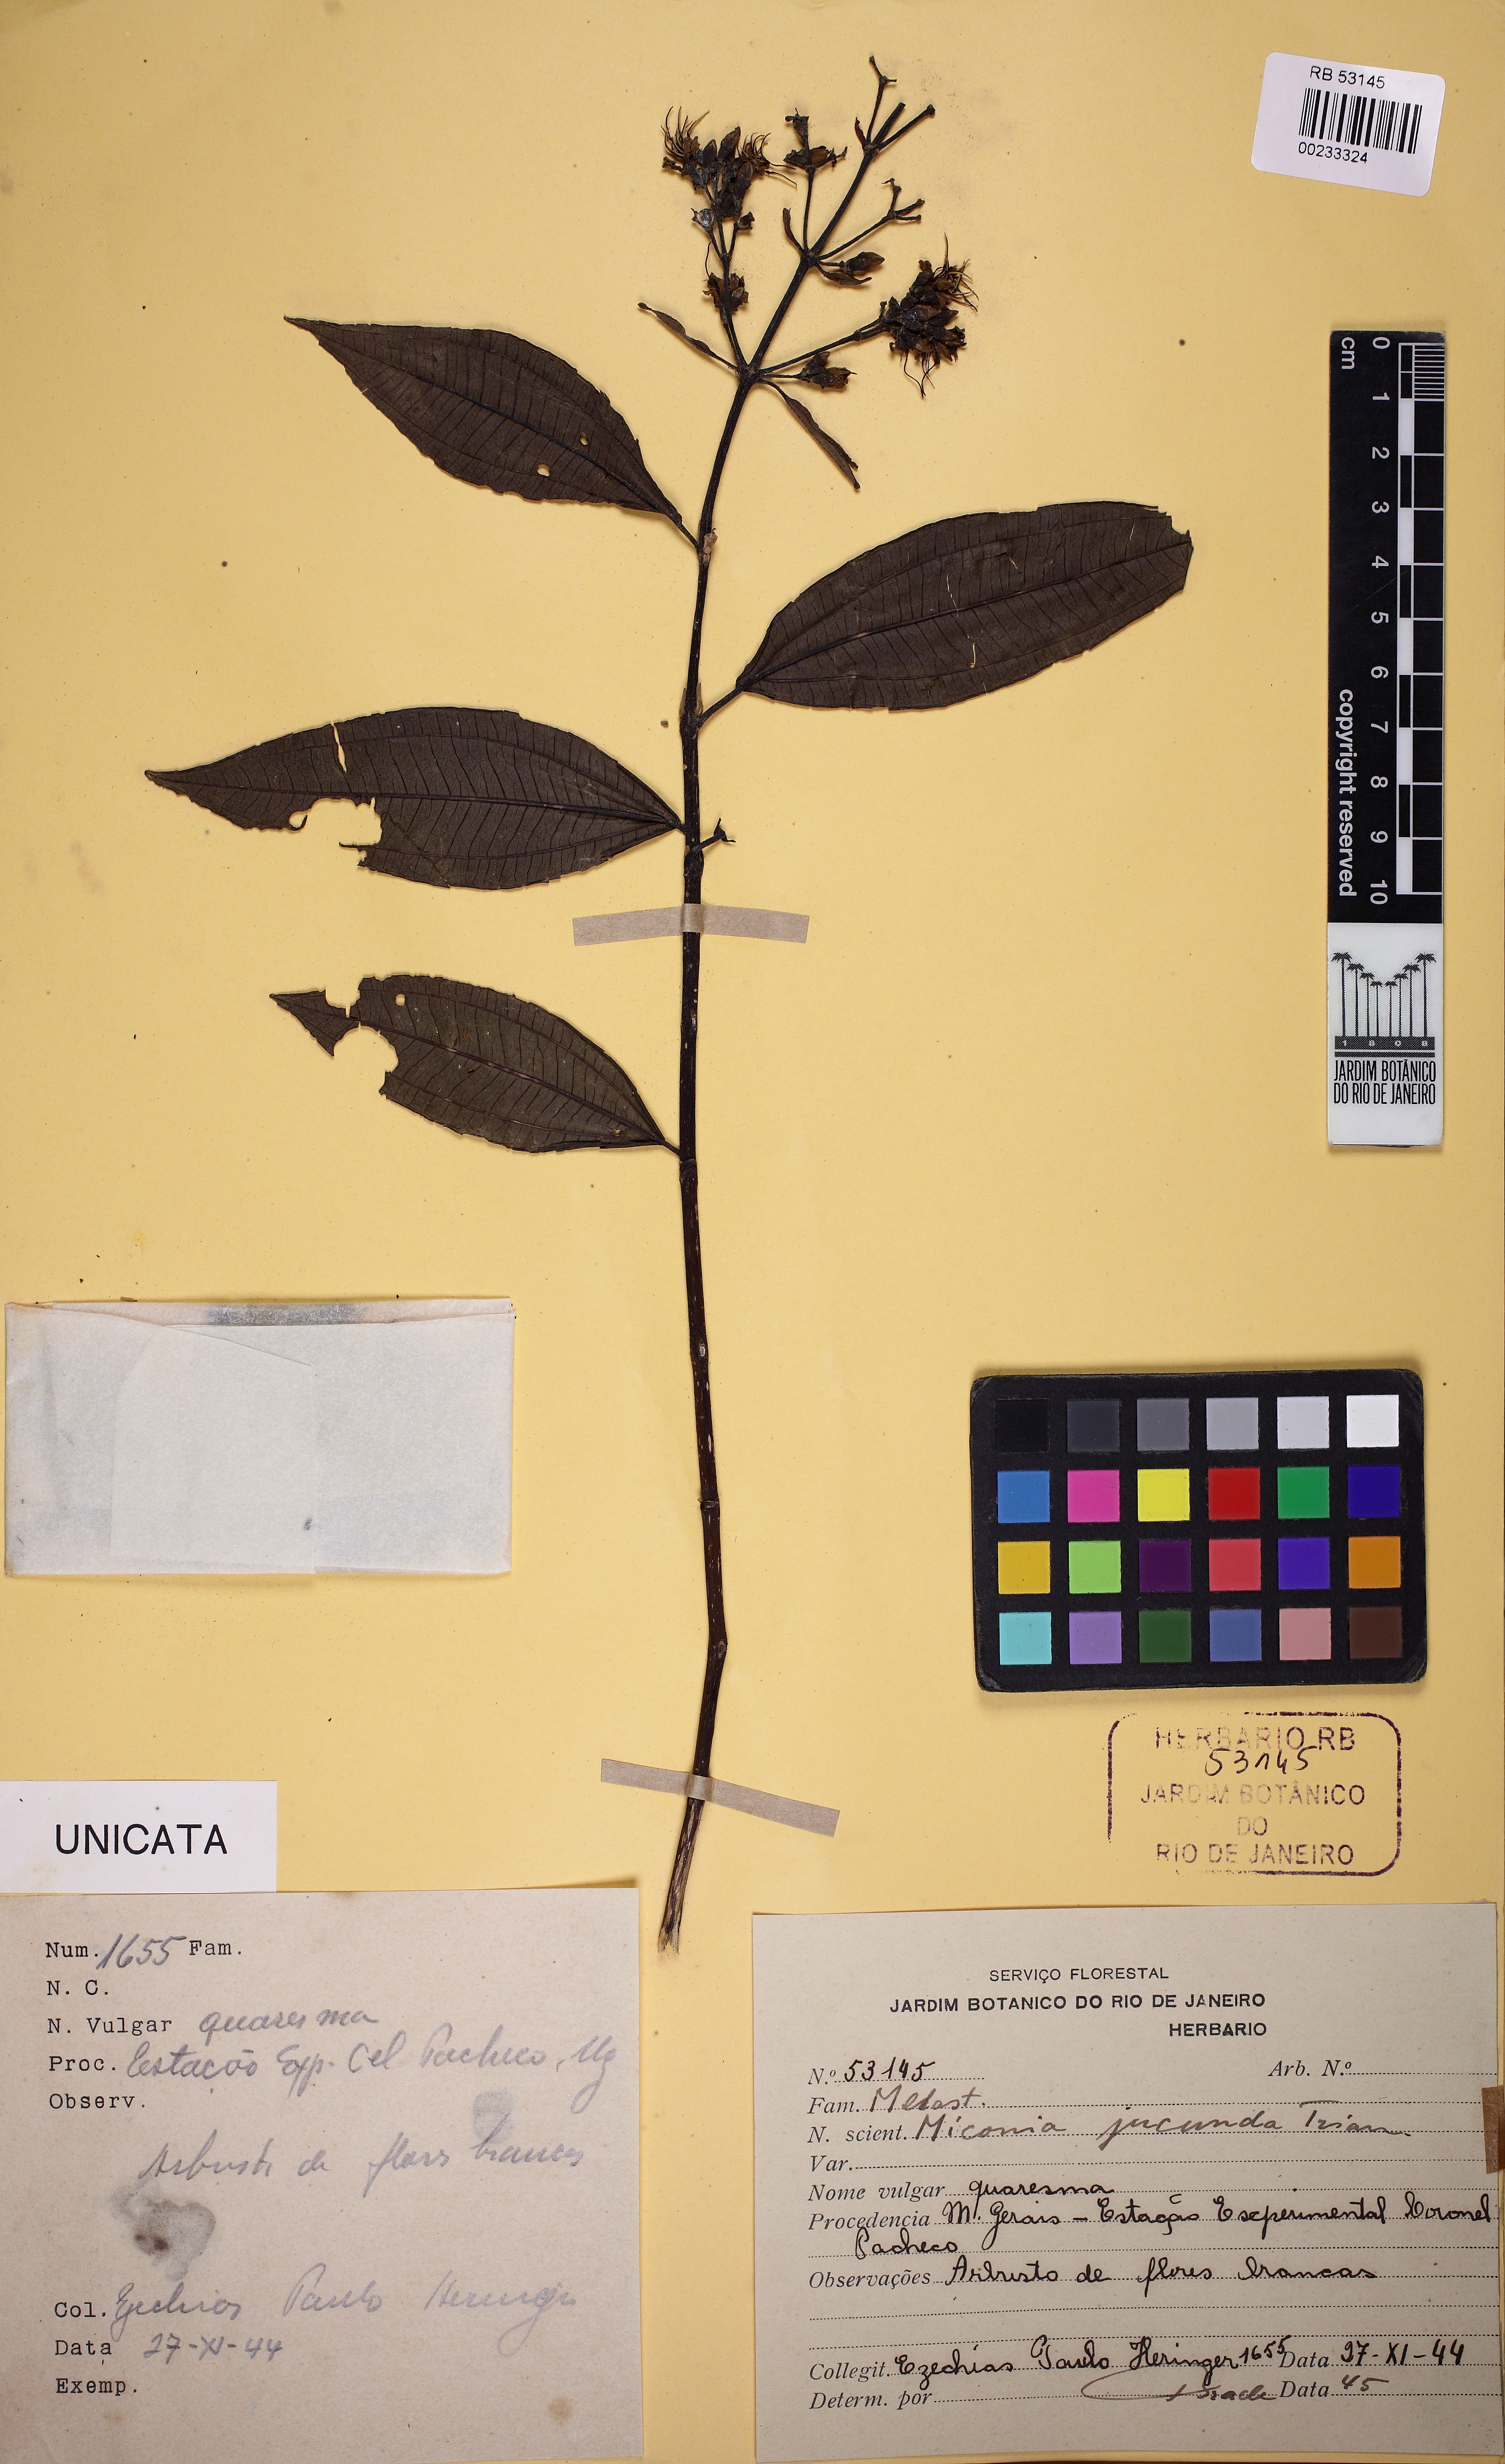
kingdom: Plantae
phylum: Tracheophyta
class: Magnoliopsida
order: Myrtales
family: Melastomataceae
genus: Miconia
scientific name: Miconia jucunda
